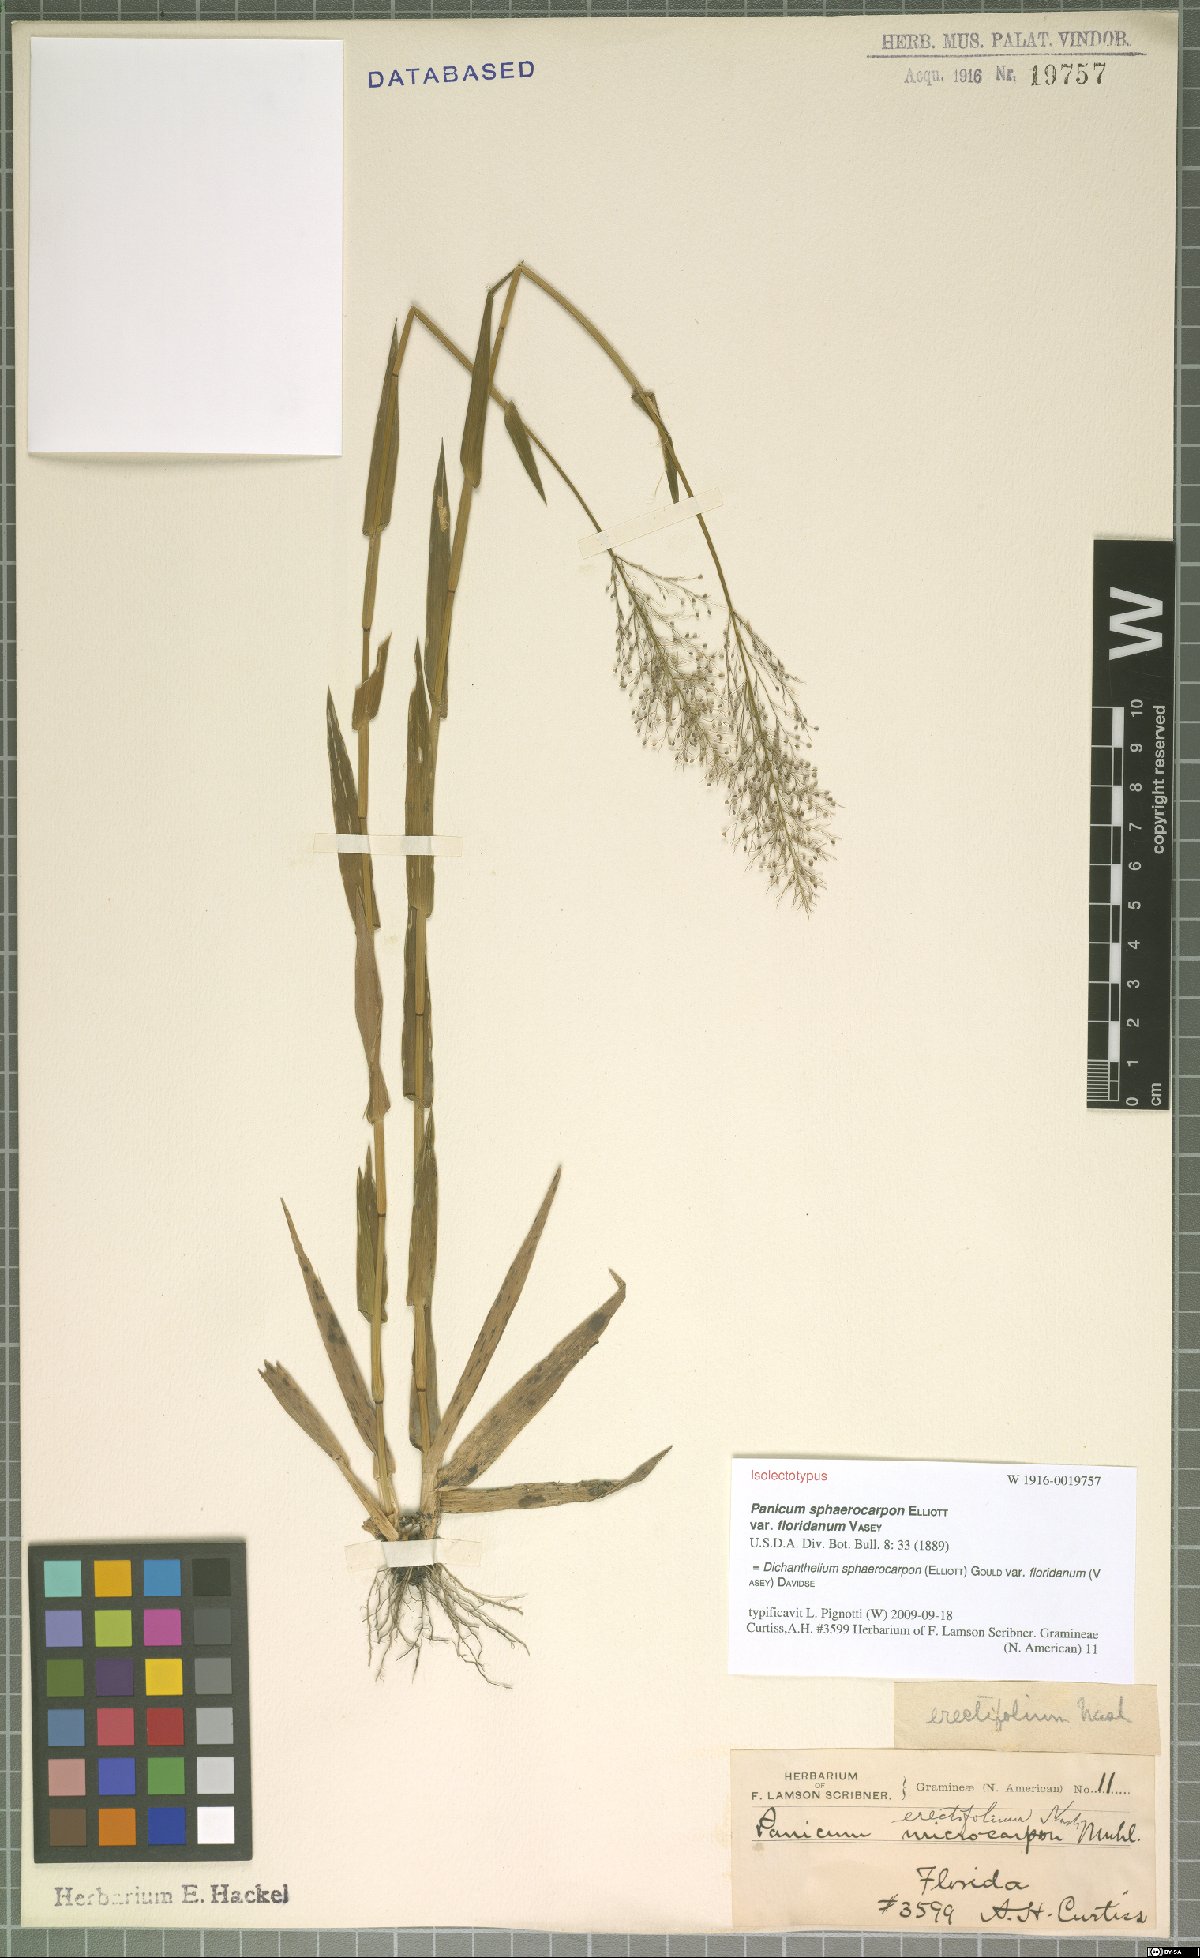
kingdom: Plantae
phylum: Tracheophyta
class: Liliopsida
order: Poales
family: Poaceae
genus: Dichanthelium
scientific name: Dichanthelium erectifolium
